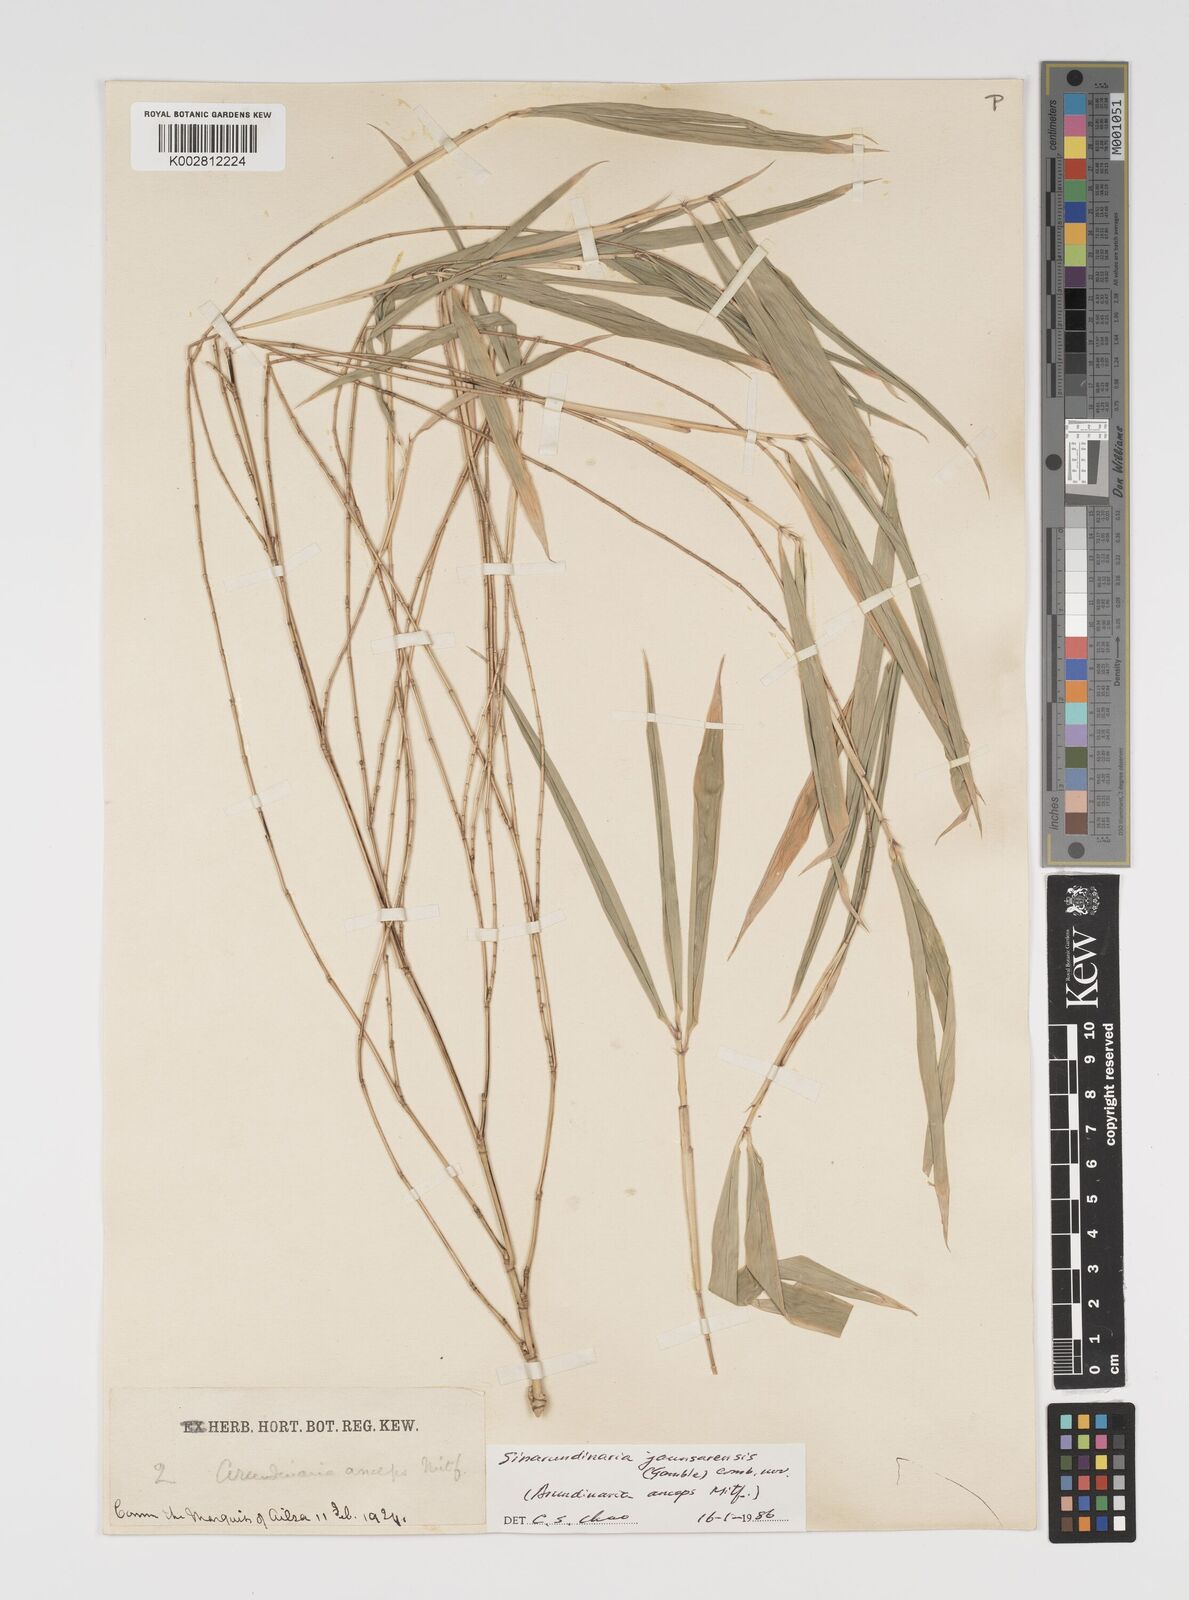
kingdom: Plantae
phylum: Tracheophyta
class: Liliopsida
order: Poales
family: Poaceae
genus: Yushania
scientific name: Yushania anceps
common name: Indian fountain-bamboo
